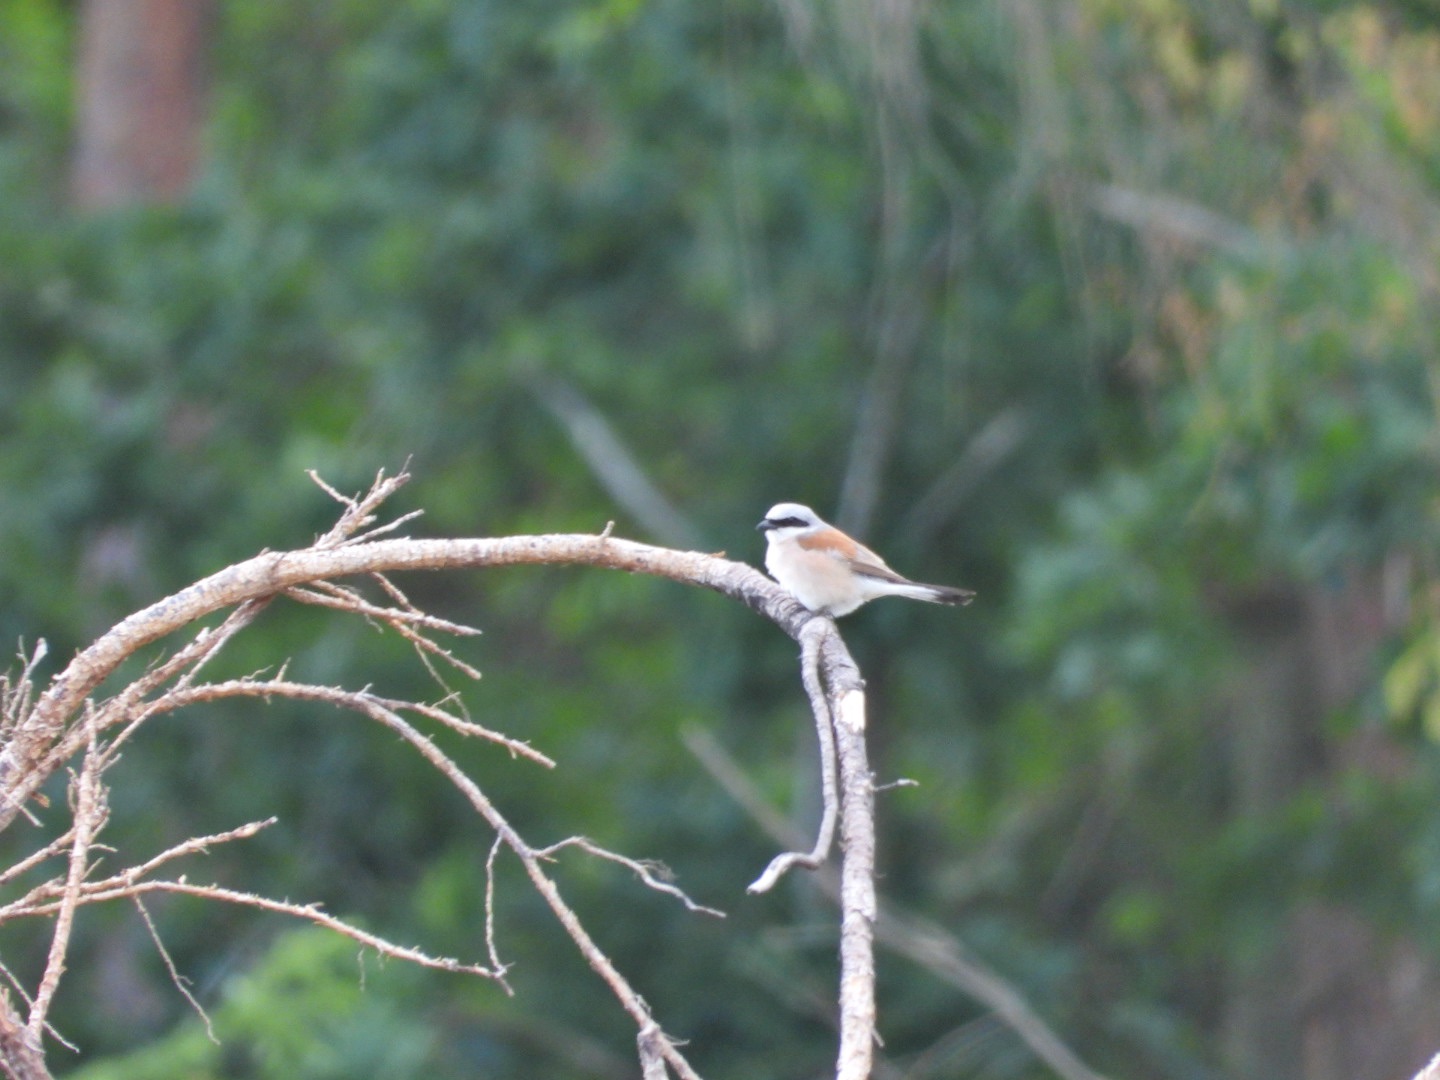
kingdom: Animalia
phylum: Chordata
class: Aves
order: Passeriformes
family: Laniidae
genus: Lanius
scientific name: Lanius collurio
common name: Rødrygget tornskade
